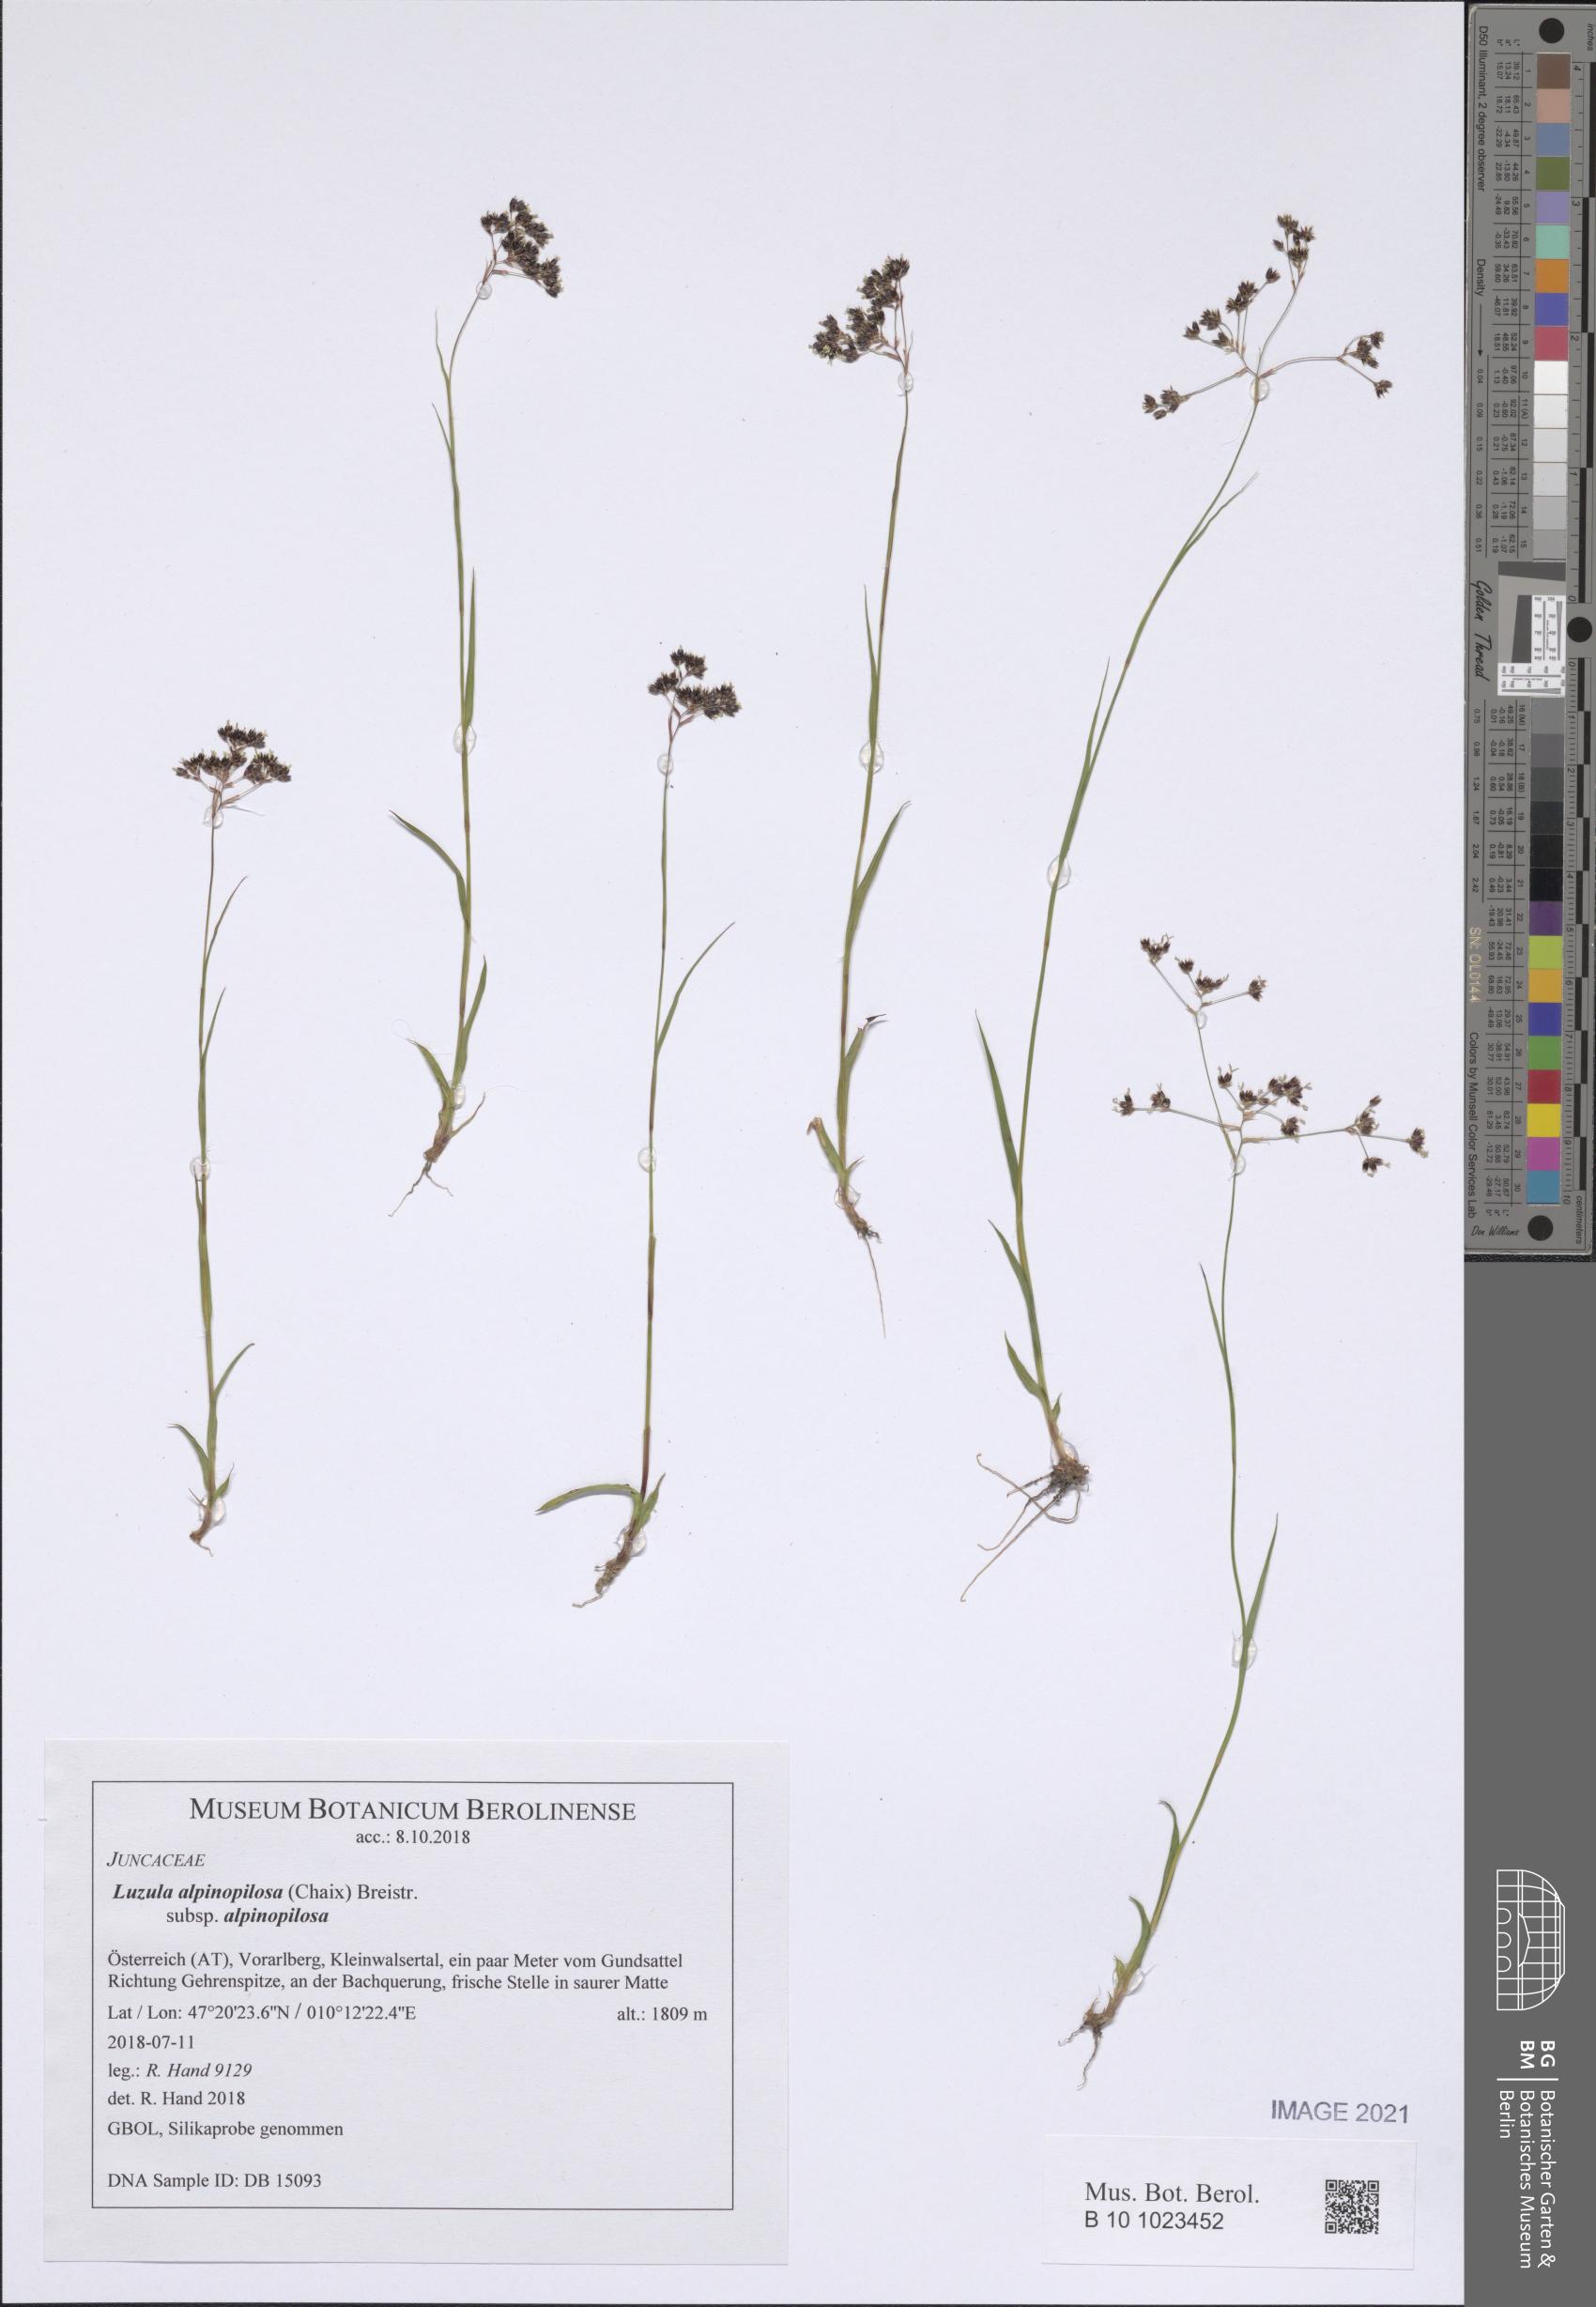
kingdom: Plantae
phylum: Tracheophyta
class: Liliopsida
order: Poales
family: Juncaceae
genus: Luzula
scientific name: Luzula alpinopilosa
